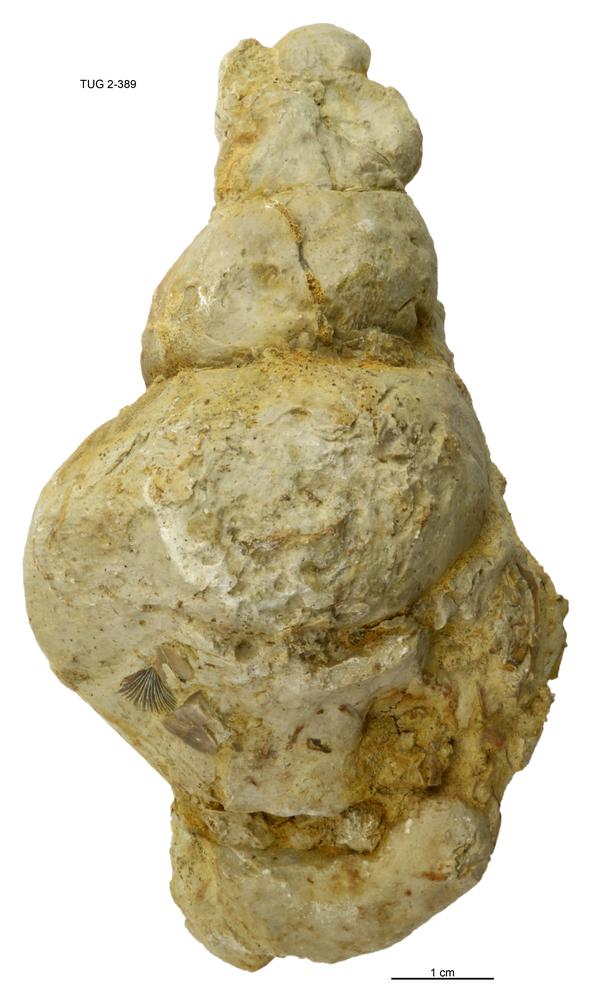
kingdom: Animalia
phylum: Mollusca
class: Gastropoda
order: Pleurotomariida
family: Murchisoniidae
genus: Murchisonia
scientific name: Murchisonia insignis
